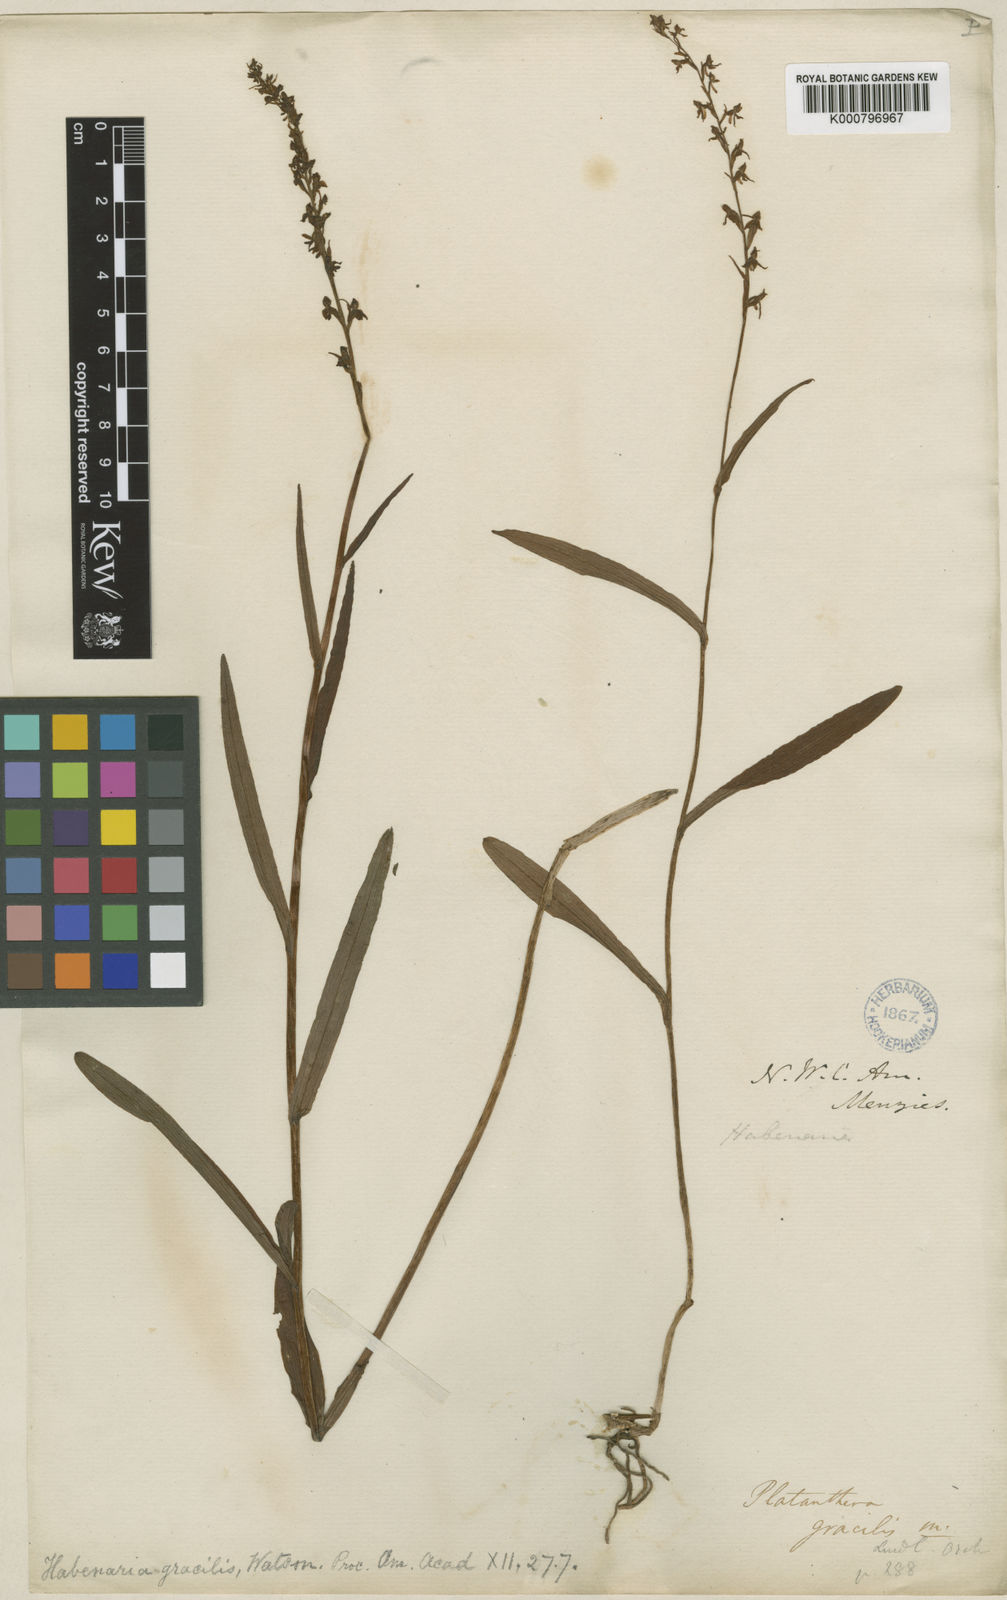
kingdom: Plantae
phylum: Tracheophyta
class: Liliopsida
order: Asparagales
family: Orchidaceae
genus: Platanthera
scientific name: Platanthera
